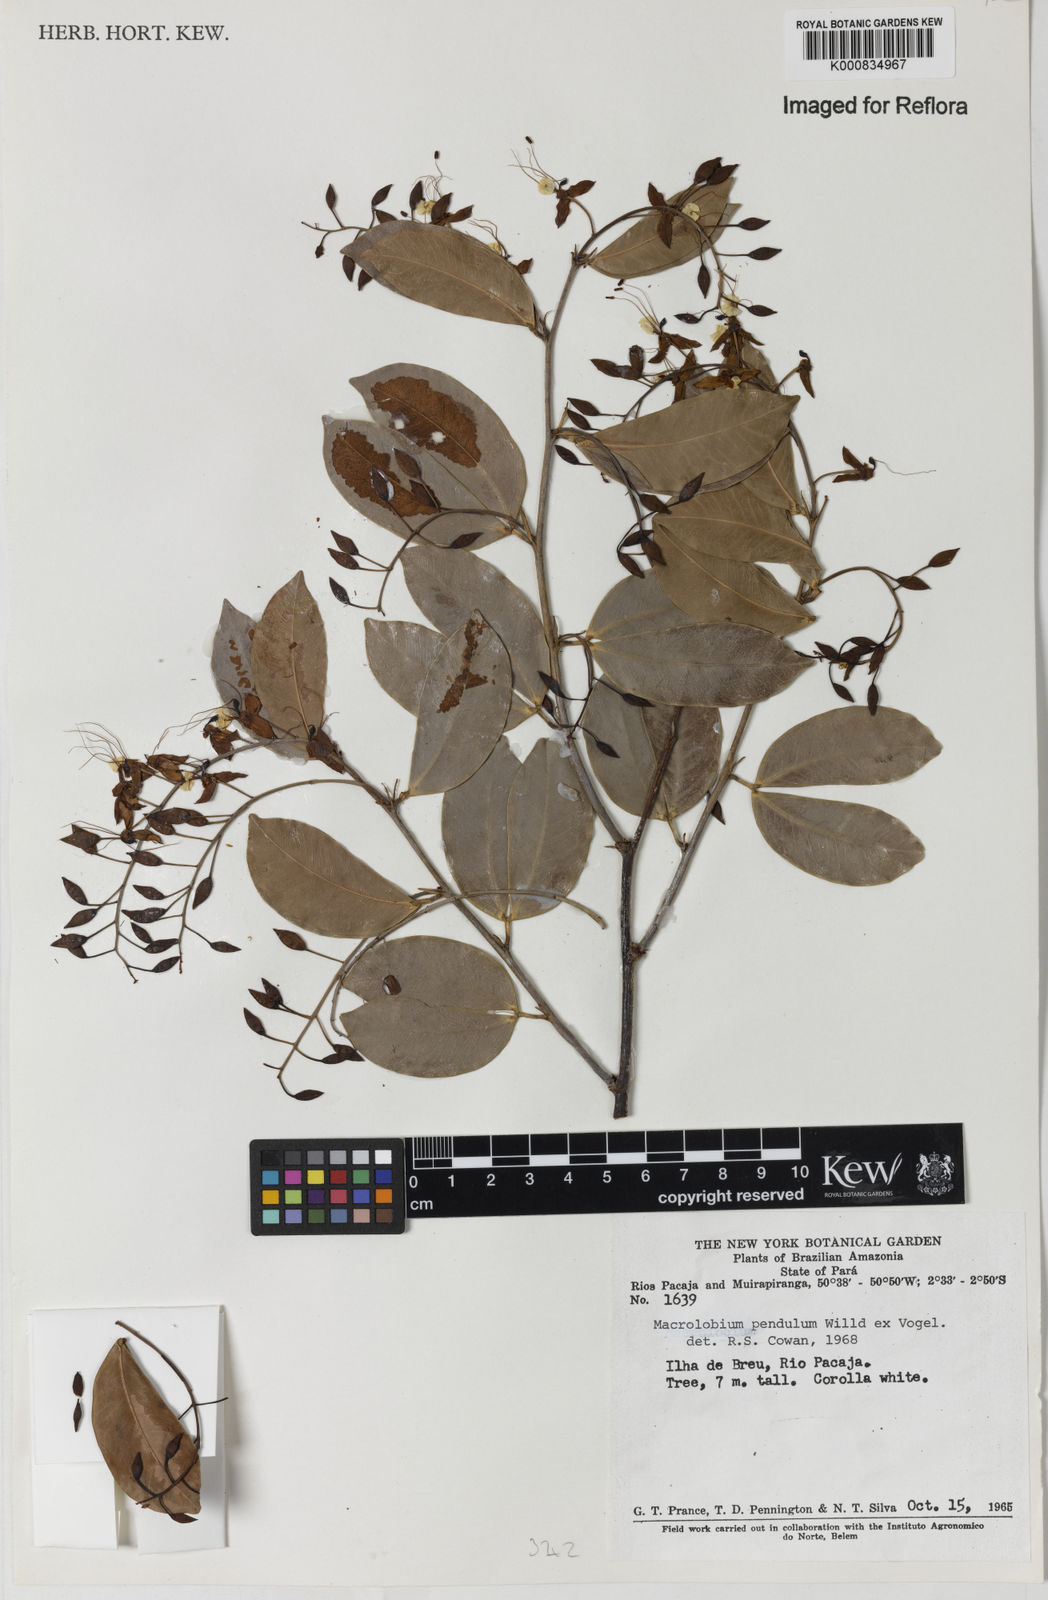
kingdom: Plantae
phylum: Tracheophyta
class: Magnoliopsida
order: Fabales
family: Fabaceae
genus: Macrolobium
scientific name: Macrolobium pendulum
